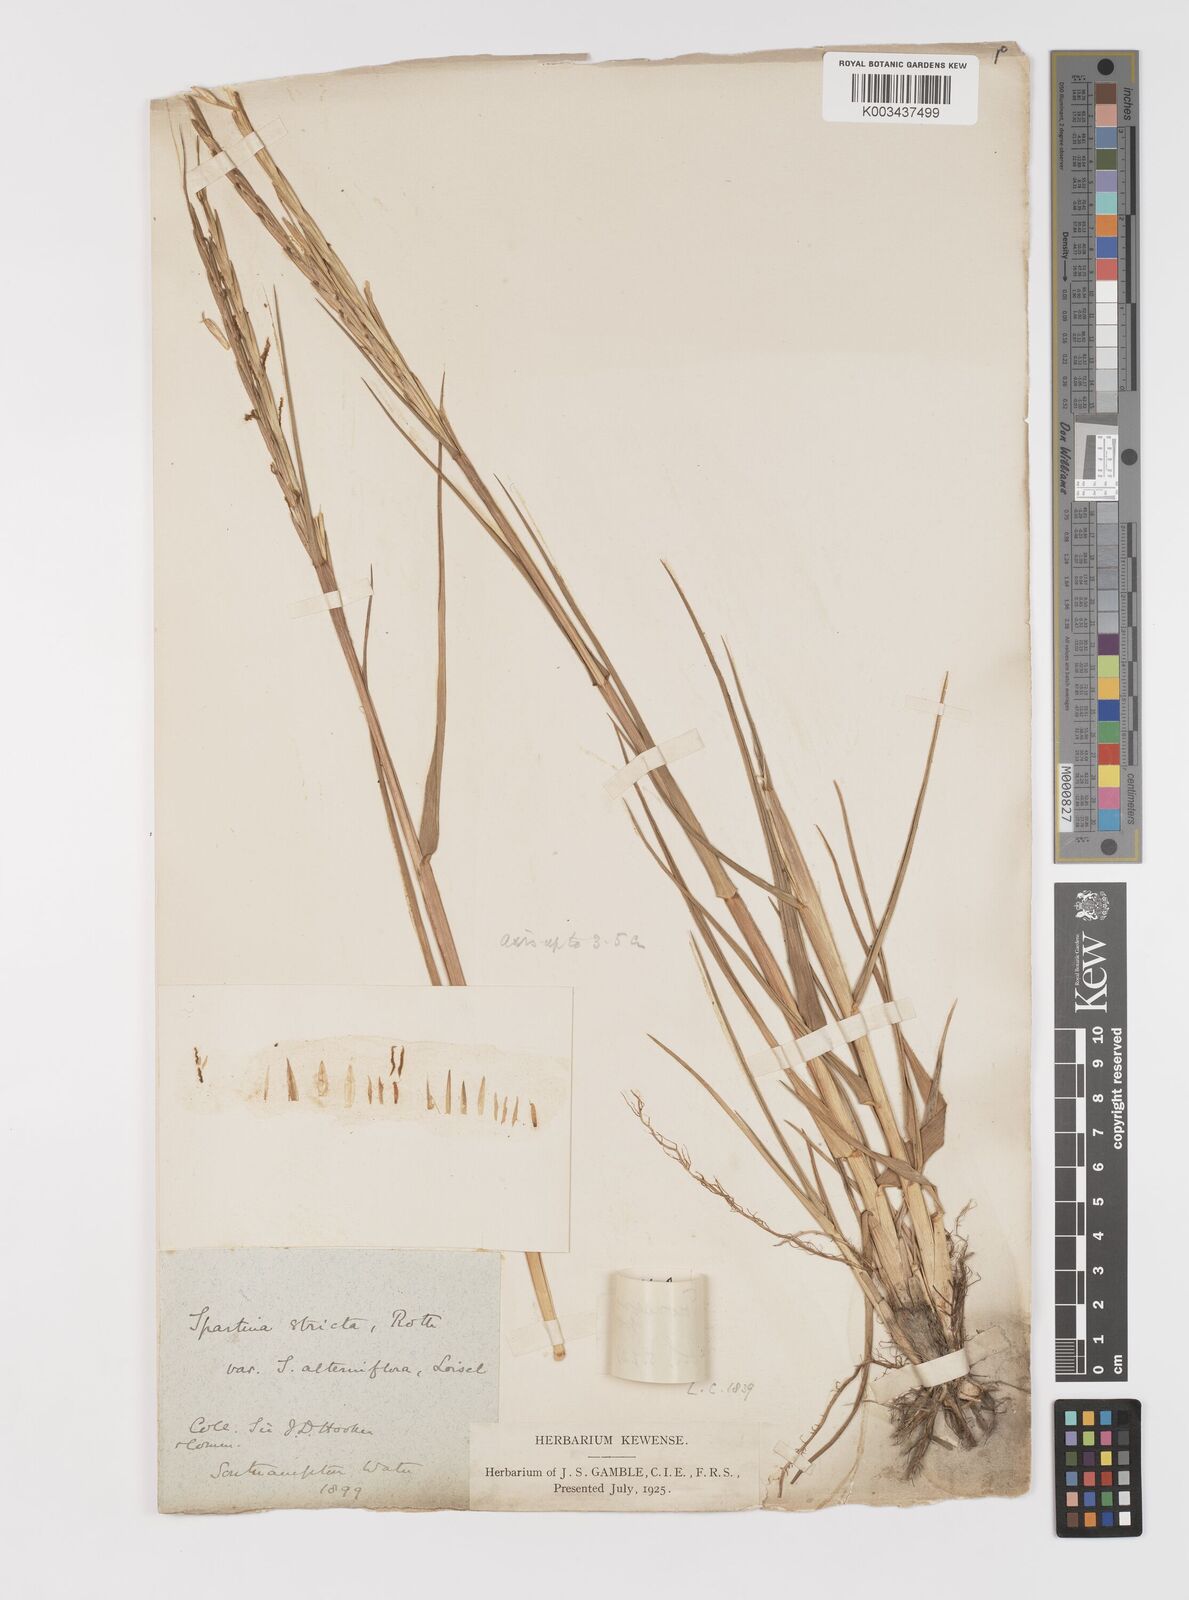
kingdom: Plantae
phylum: Tracheophyta
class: Liliopsida
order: Poales
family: Poaceae
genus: Sporobolus
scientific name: Sporobolus anglicus
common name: English cordgrass
